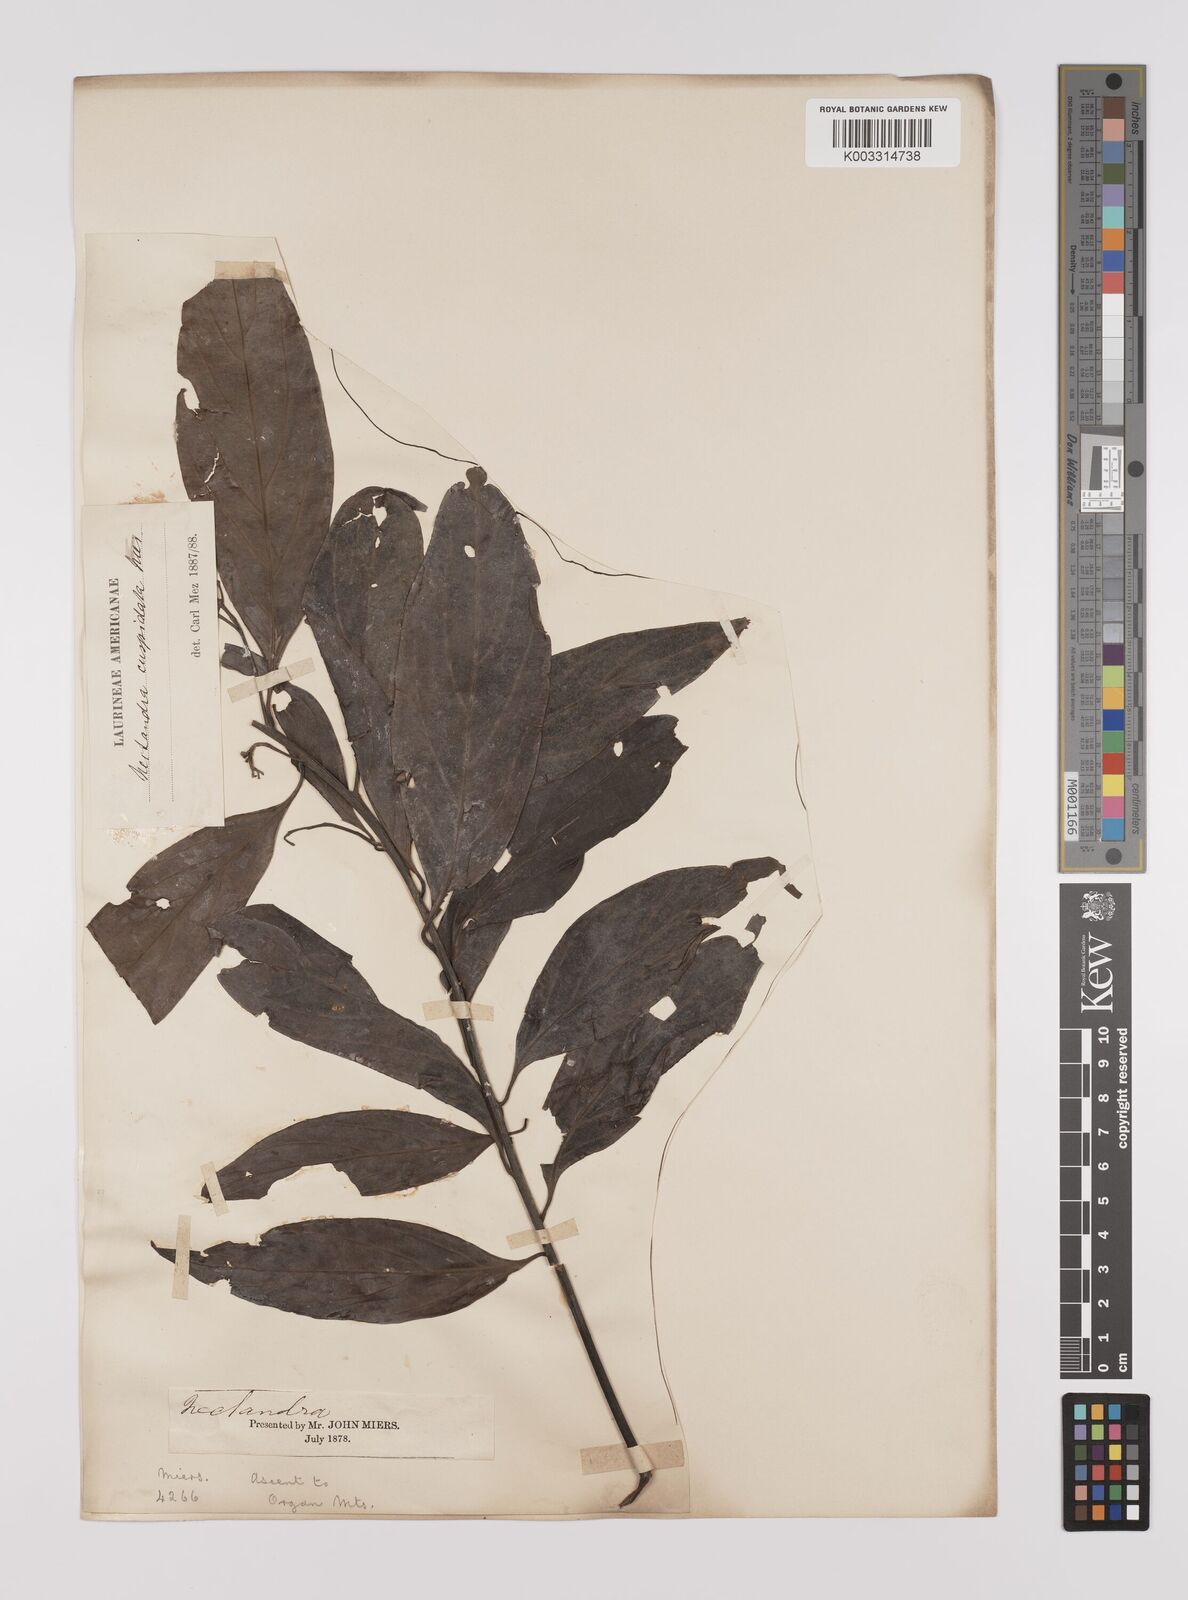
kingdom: Plantae
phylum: Tracheophyta
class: Magnoliopsida
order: Laurales
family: Lauraceae
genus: Nectandra
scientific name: Nectandra cuspidata
